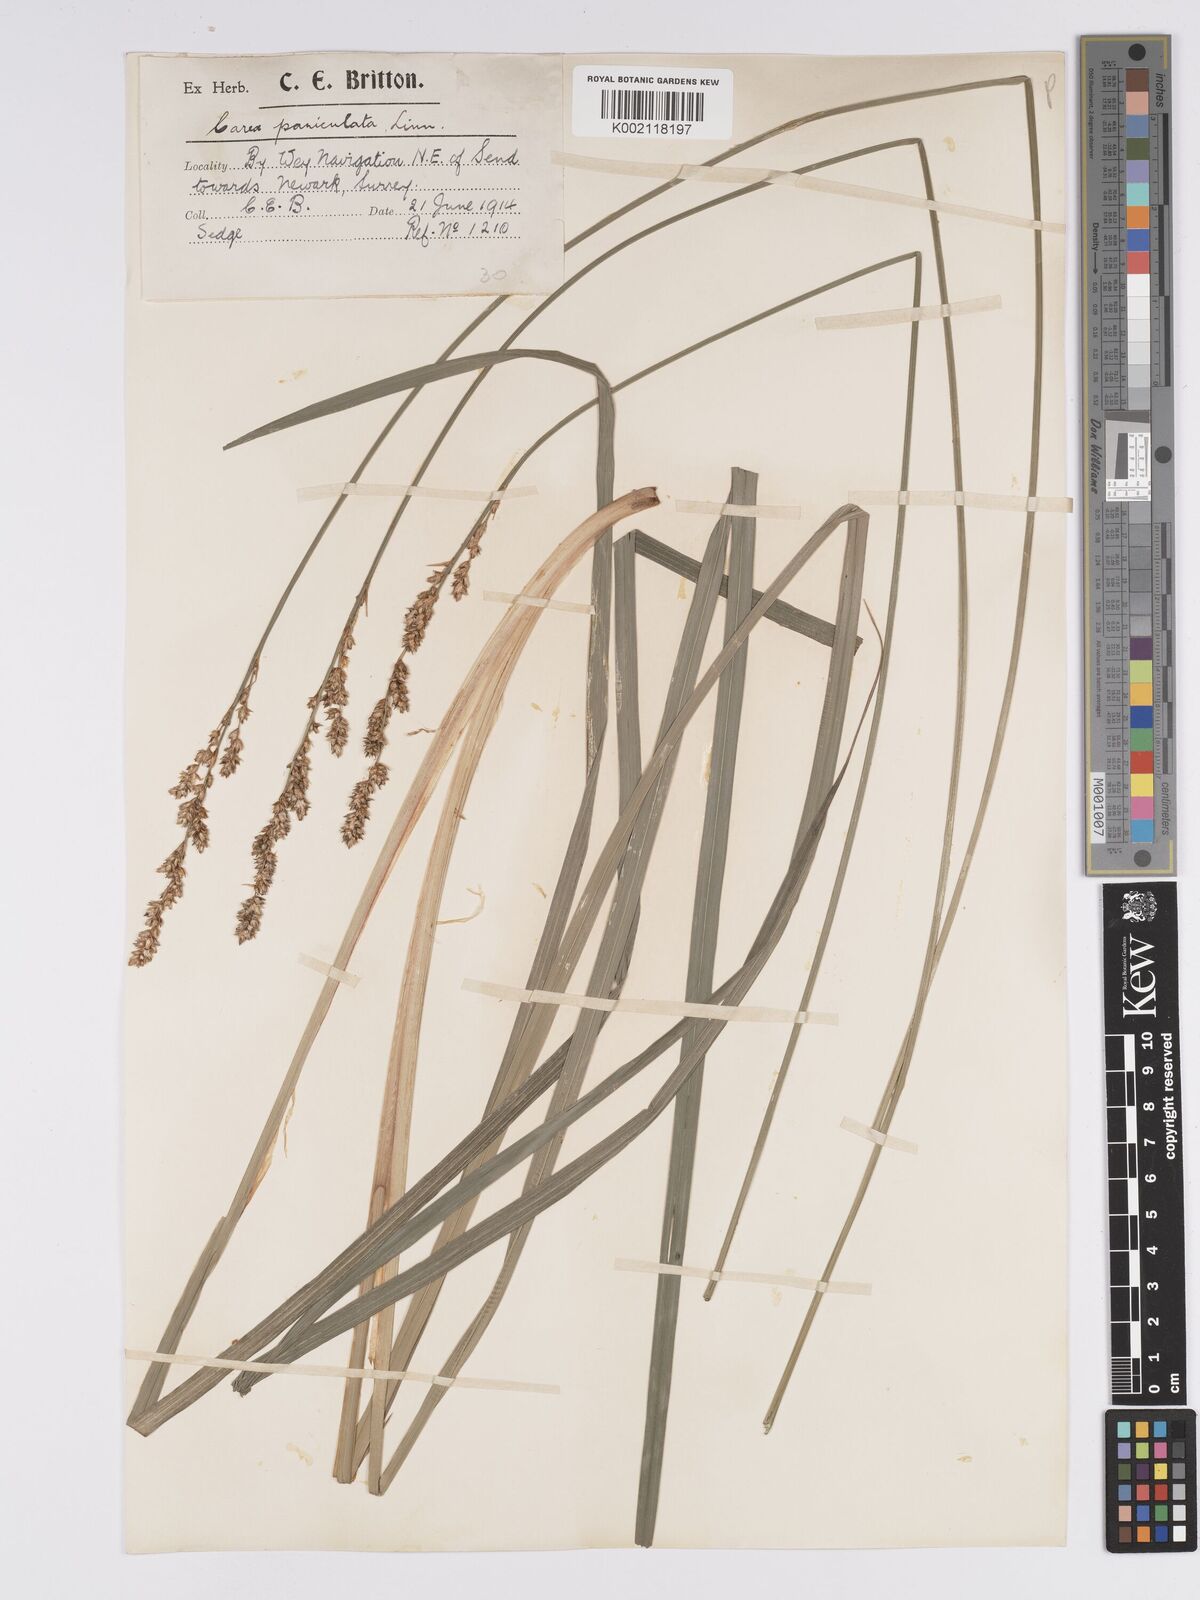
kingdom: Plantae
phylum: Tracheophyta
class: Liliopsida
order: Poales
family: Cyperaceae
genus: Carex
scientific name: Carex paniculata
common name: Greater tussock-sedge
